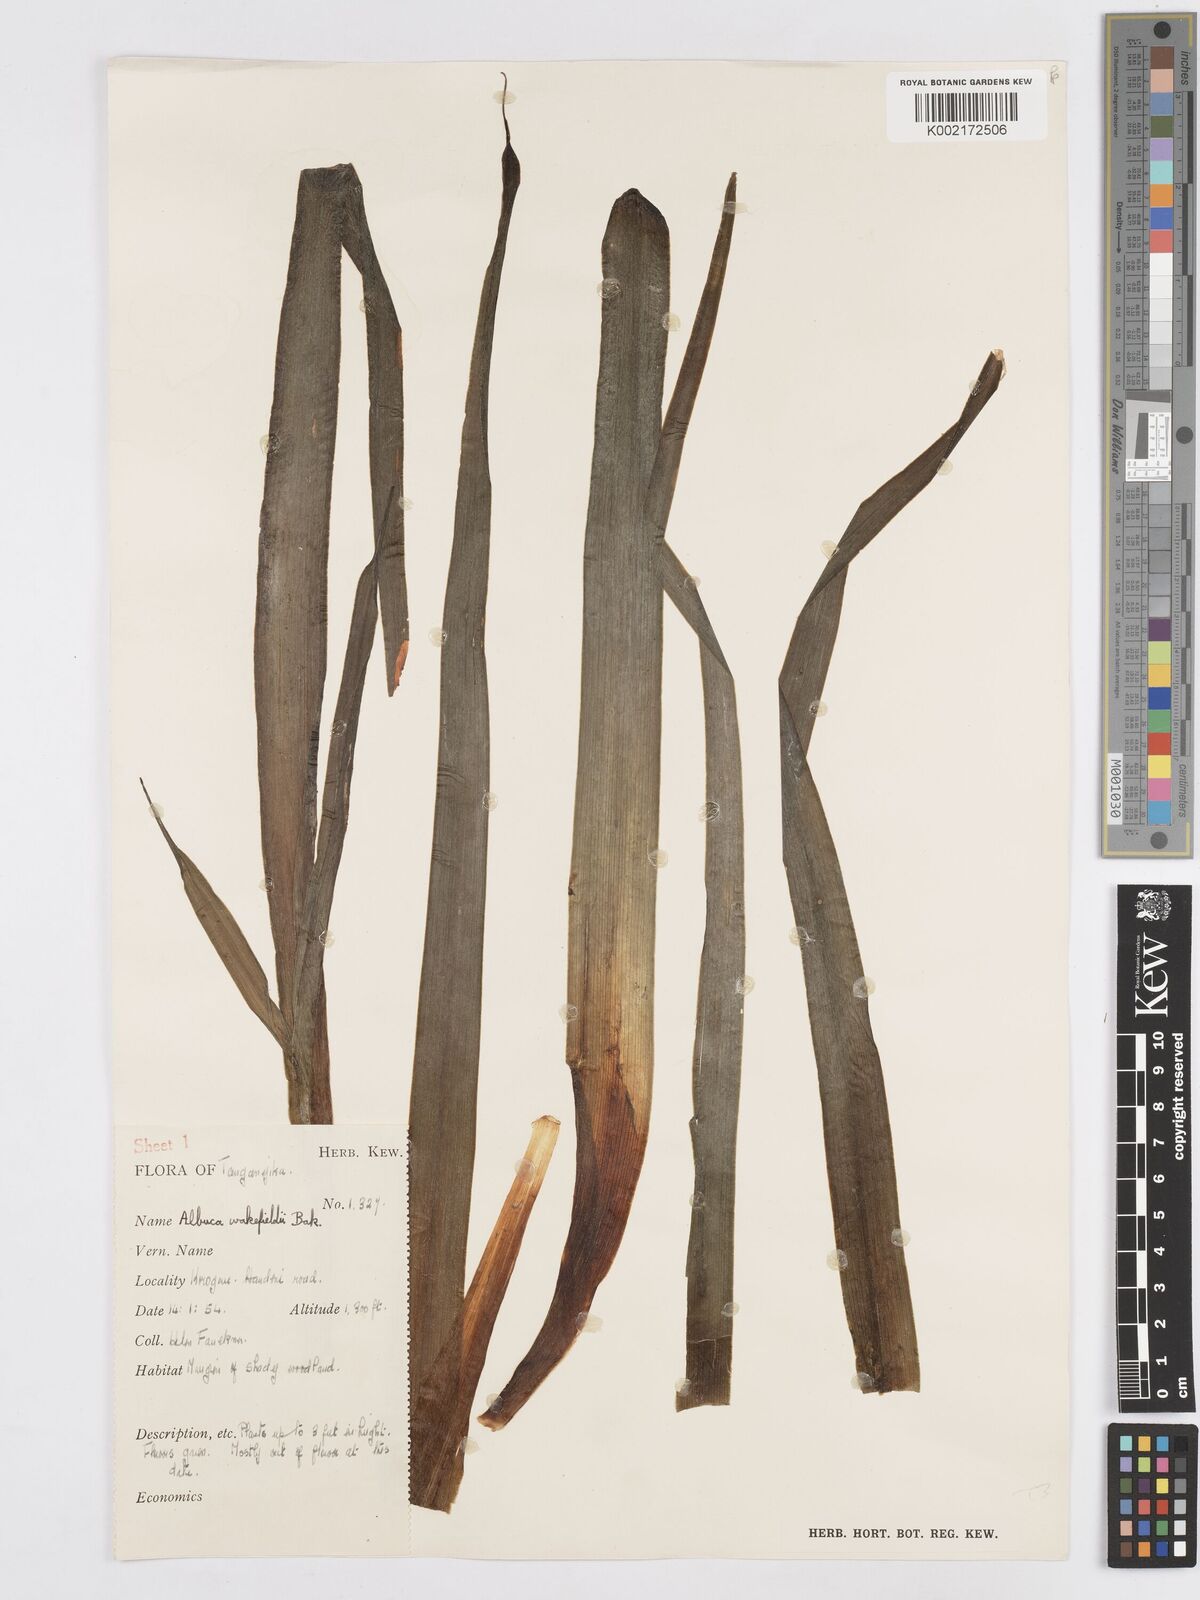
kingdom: Plantae
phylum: Tracheophyta
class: Liliopsida
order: Asparagales
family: Asparagaceae
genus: Albuca
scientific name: Albuca abyssinica
